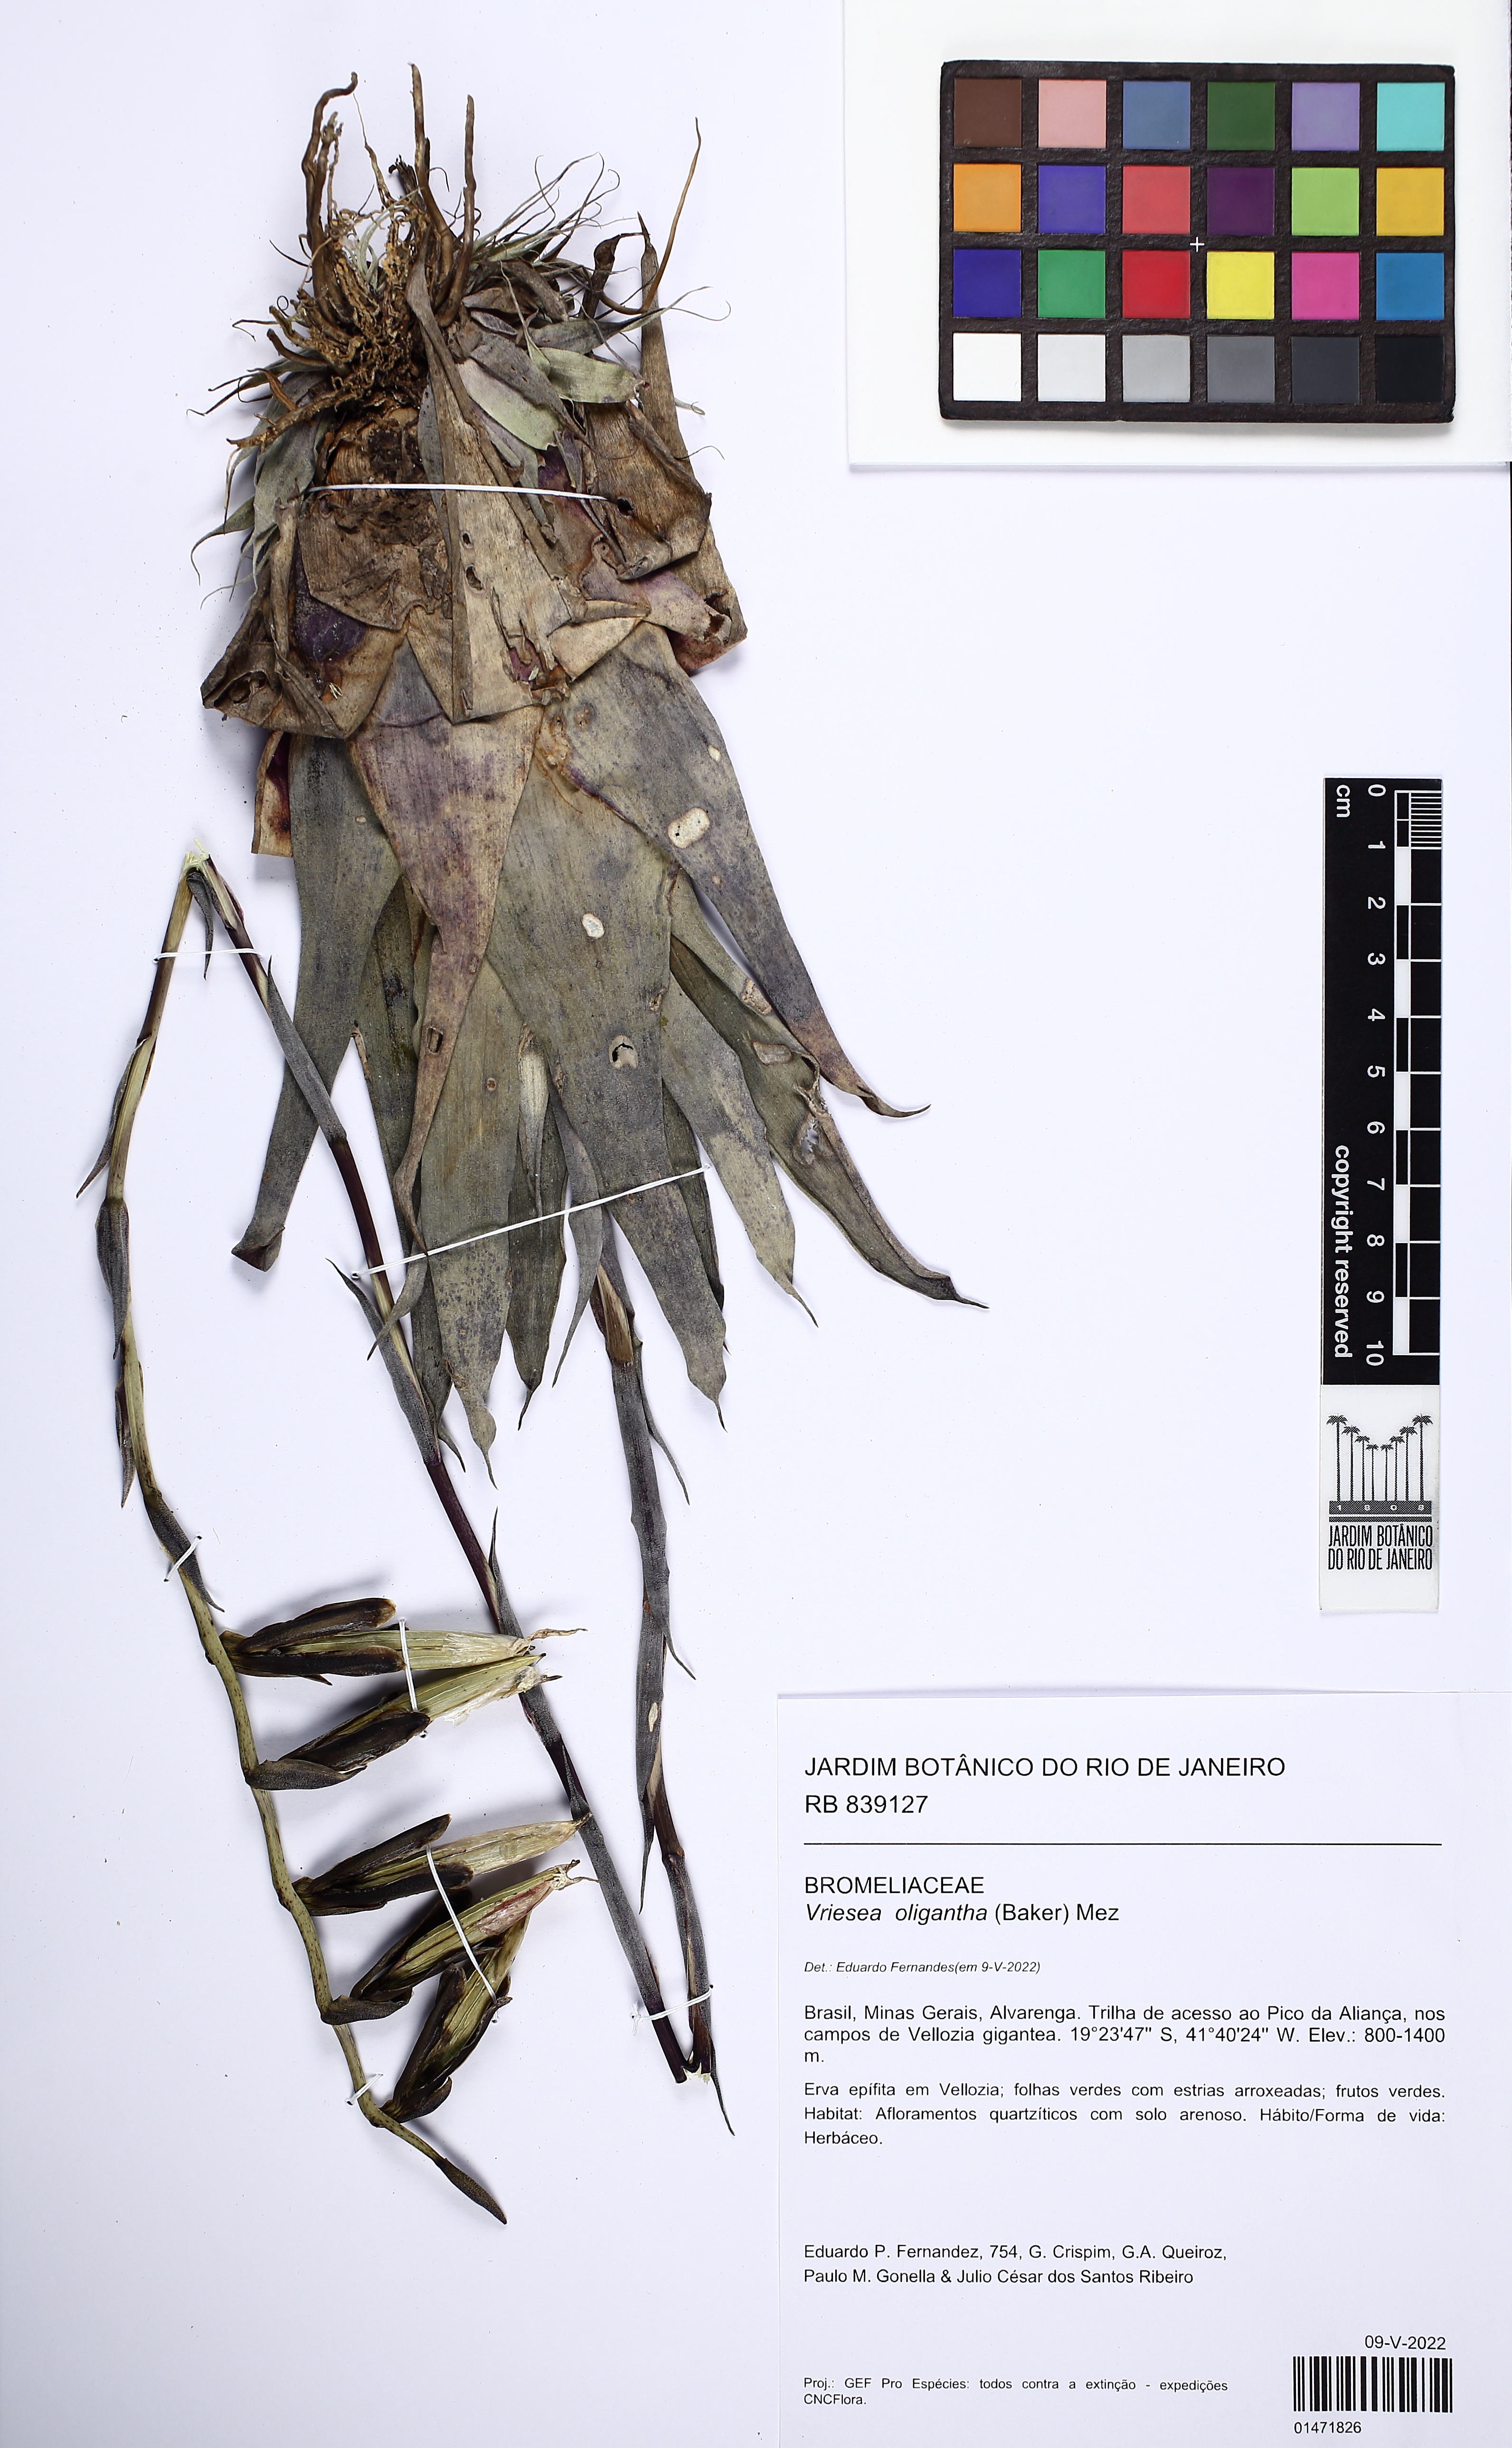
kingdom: Plantae
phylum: Tracheophyta
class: Liliopsida
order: Poales
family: Bromeliaceae
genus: Vriesea
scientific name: Vriesea oligantha
